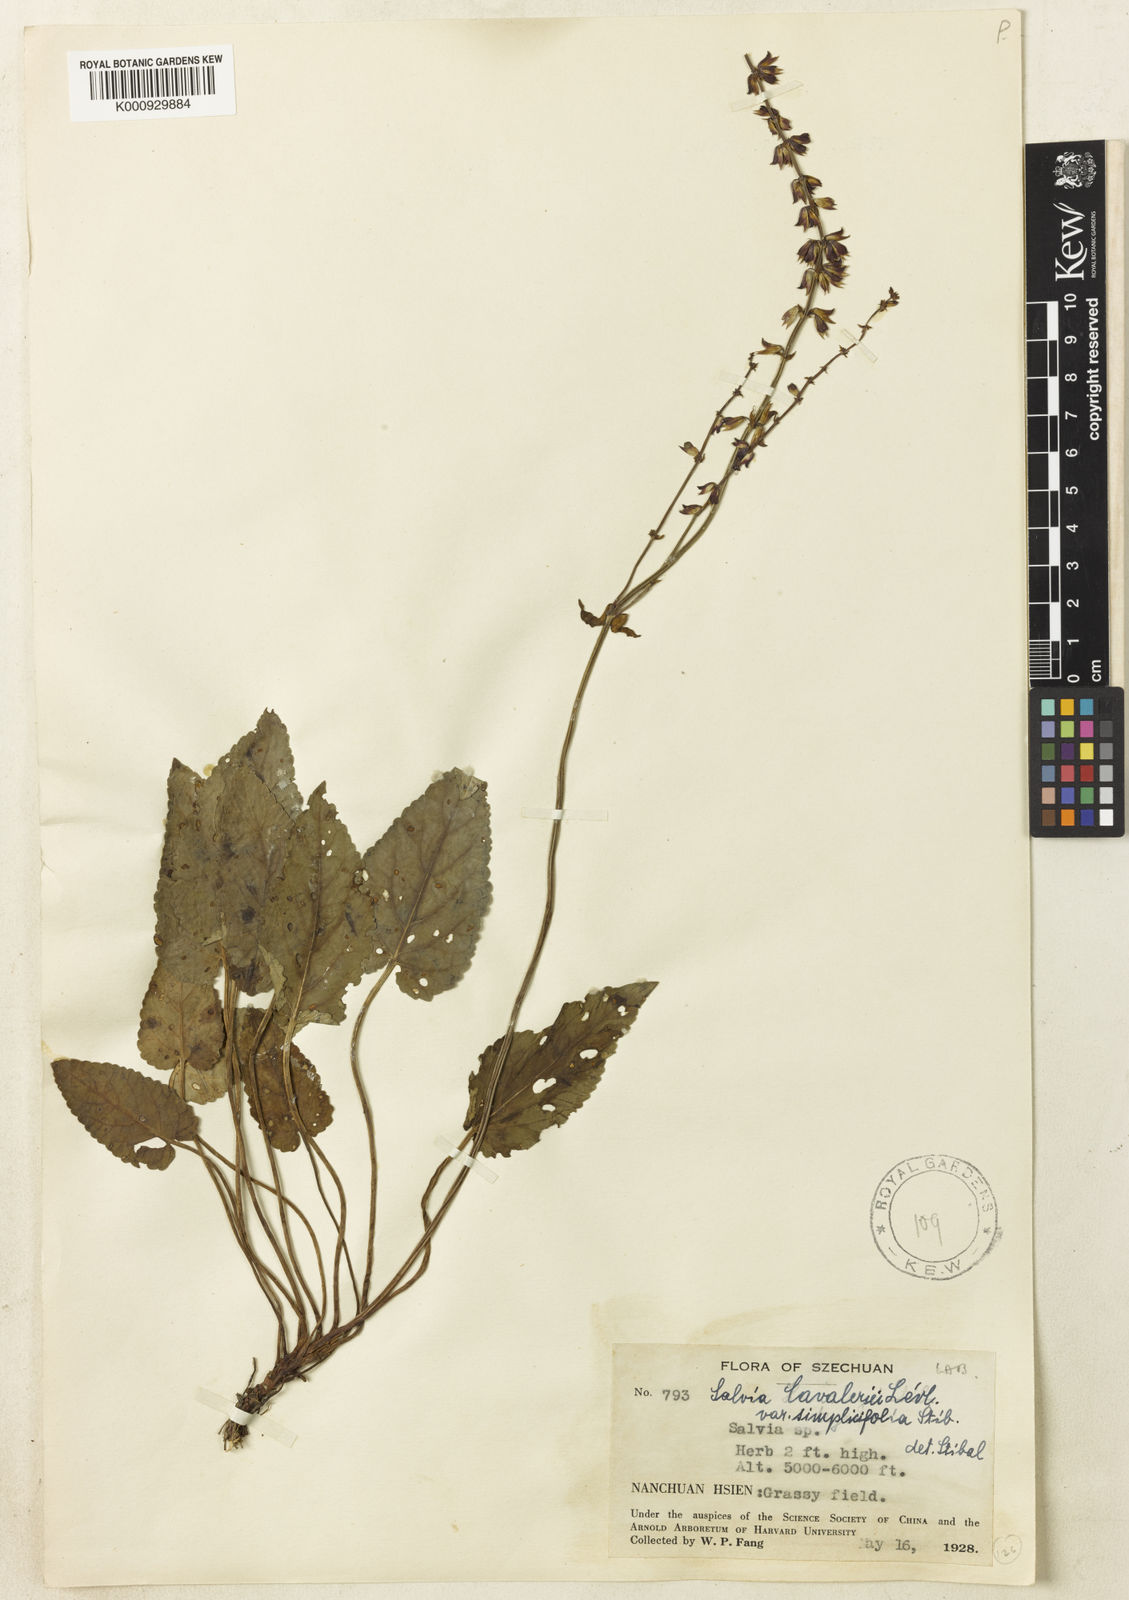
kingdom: Plantae
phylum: Tracheophyta
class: Magnoliopsida
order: Lamiales
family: Lamiaceae
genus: Salvia
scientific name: Salvia
